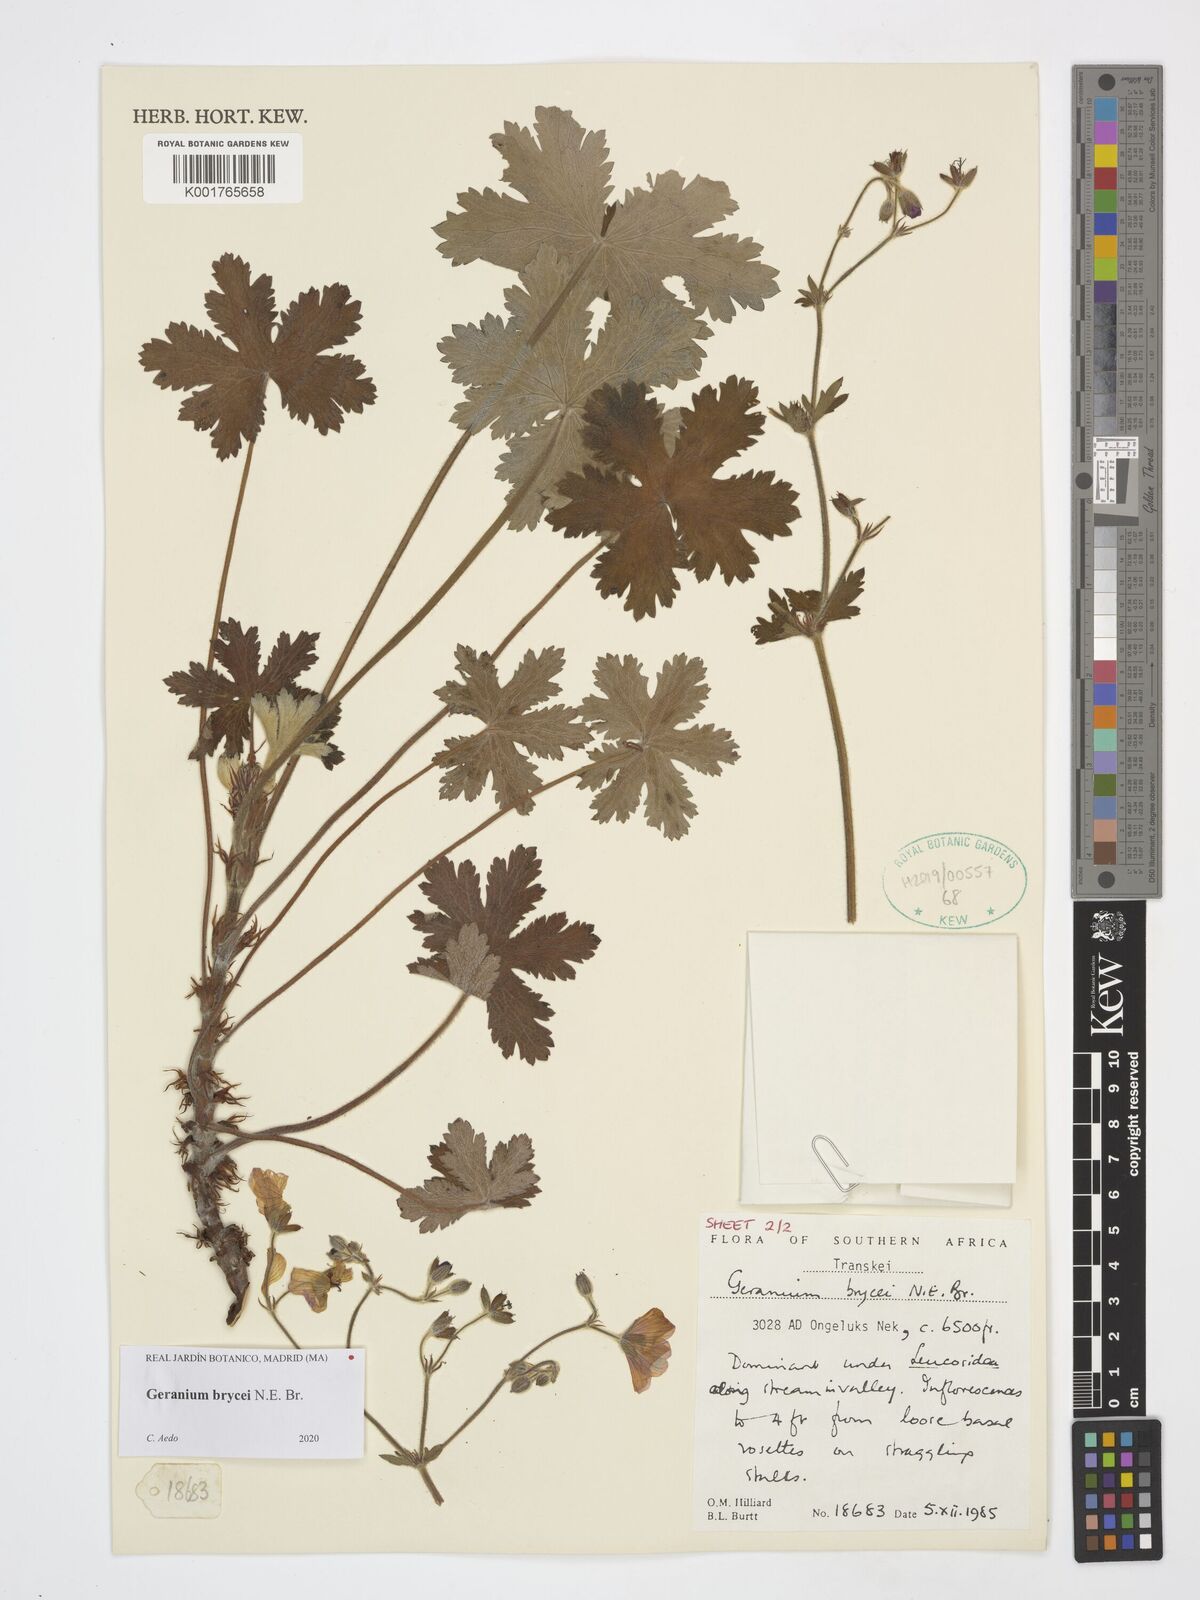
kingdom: Plantae
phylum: Tracheophyta
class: Magnoliopsida
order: Geraniales
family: Geraniaceae
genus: Geranium
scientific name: Geranium brycei
